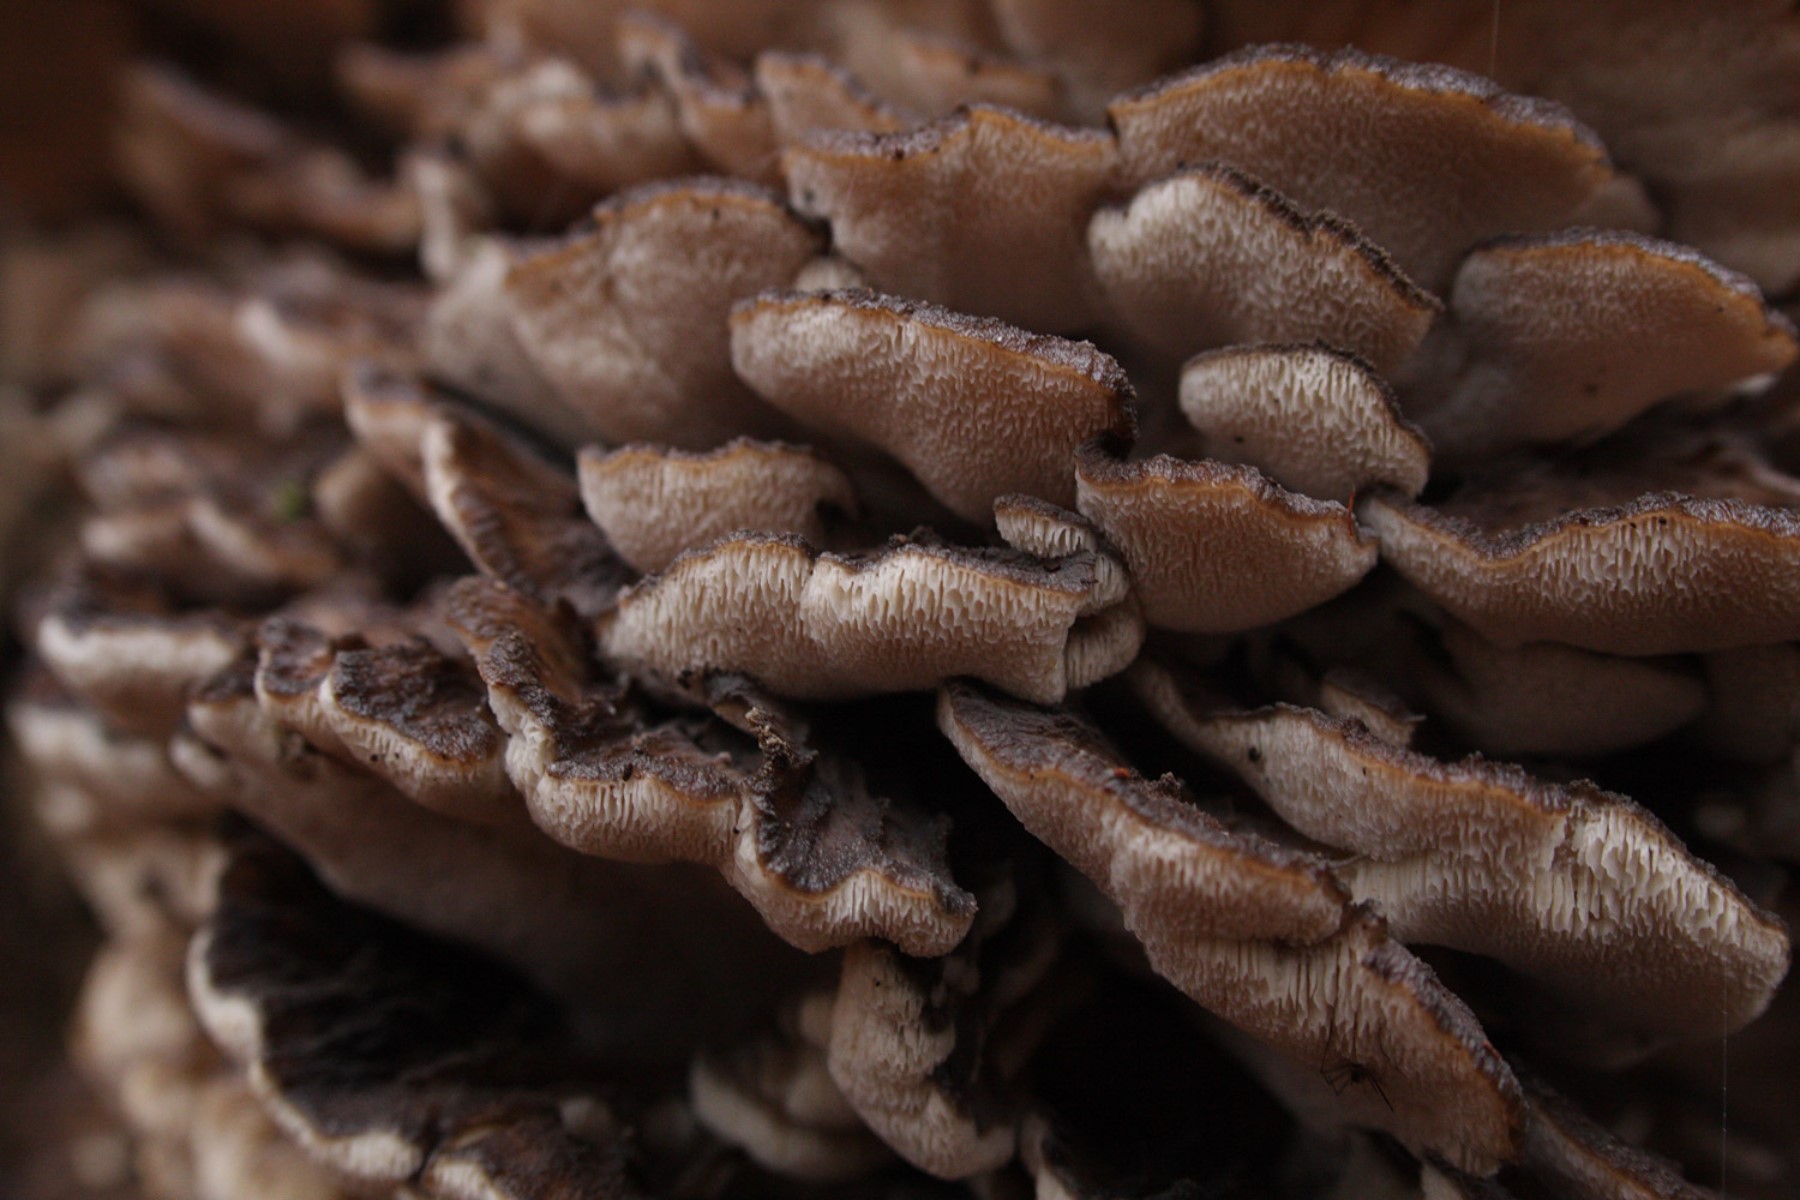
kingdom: Fungi
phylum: Basidiomycota
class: Agaricomycetes
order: Polyporales
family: Grifolaceae
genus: Grifola
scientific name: Grifola frondosa
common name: tueporesvamp
